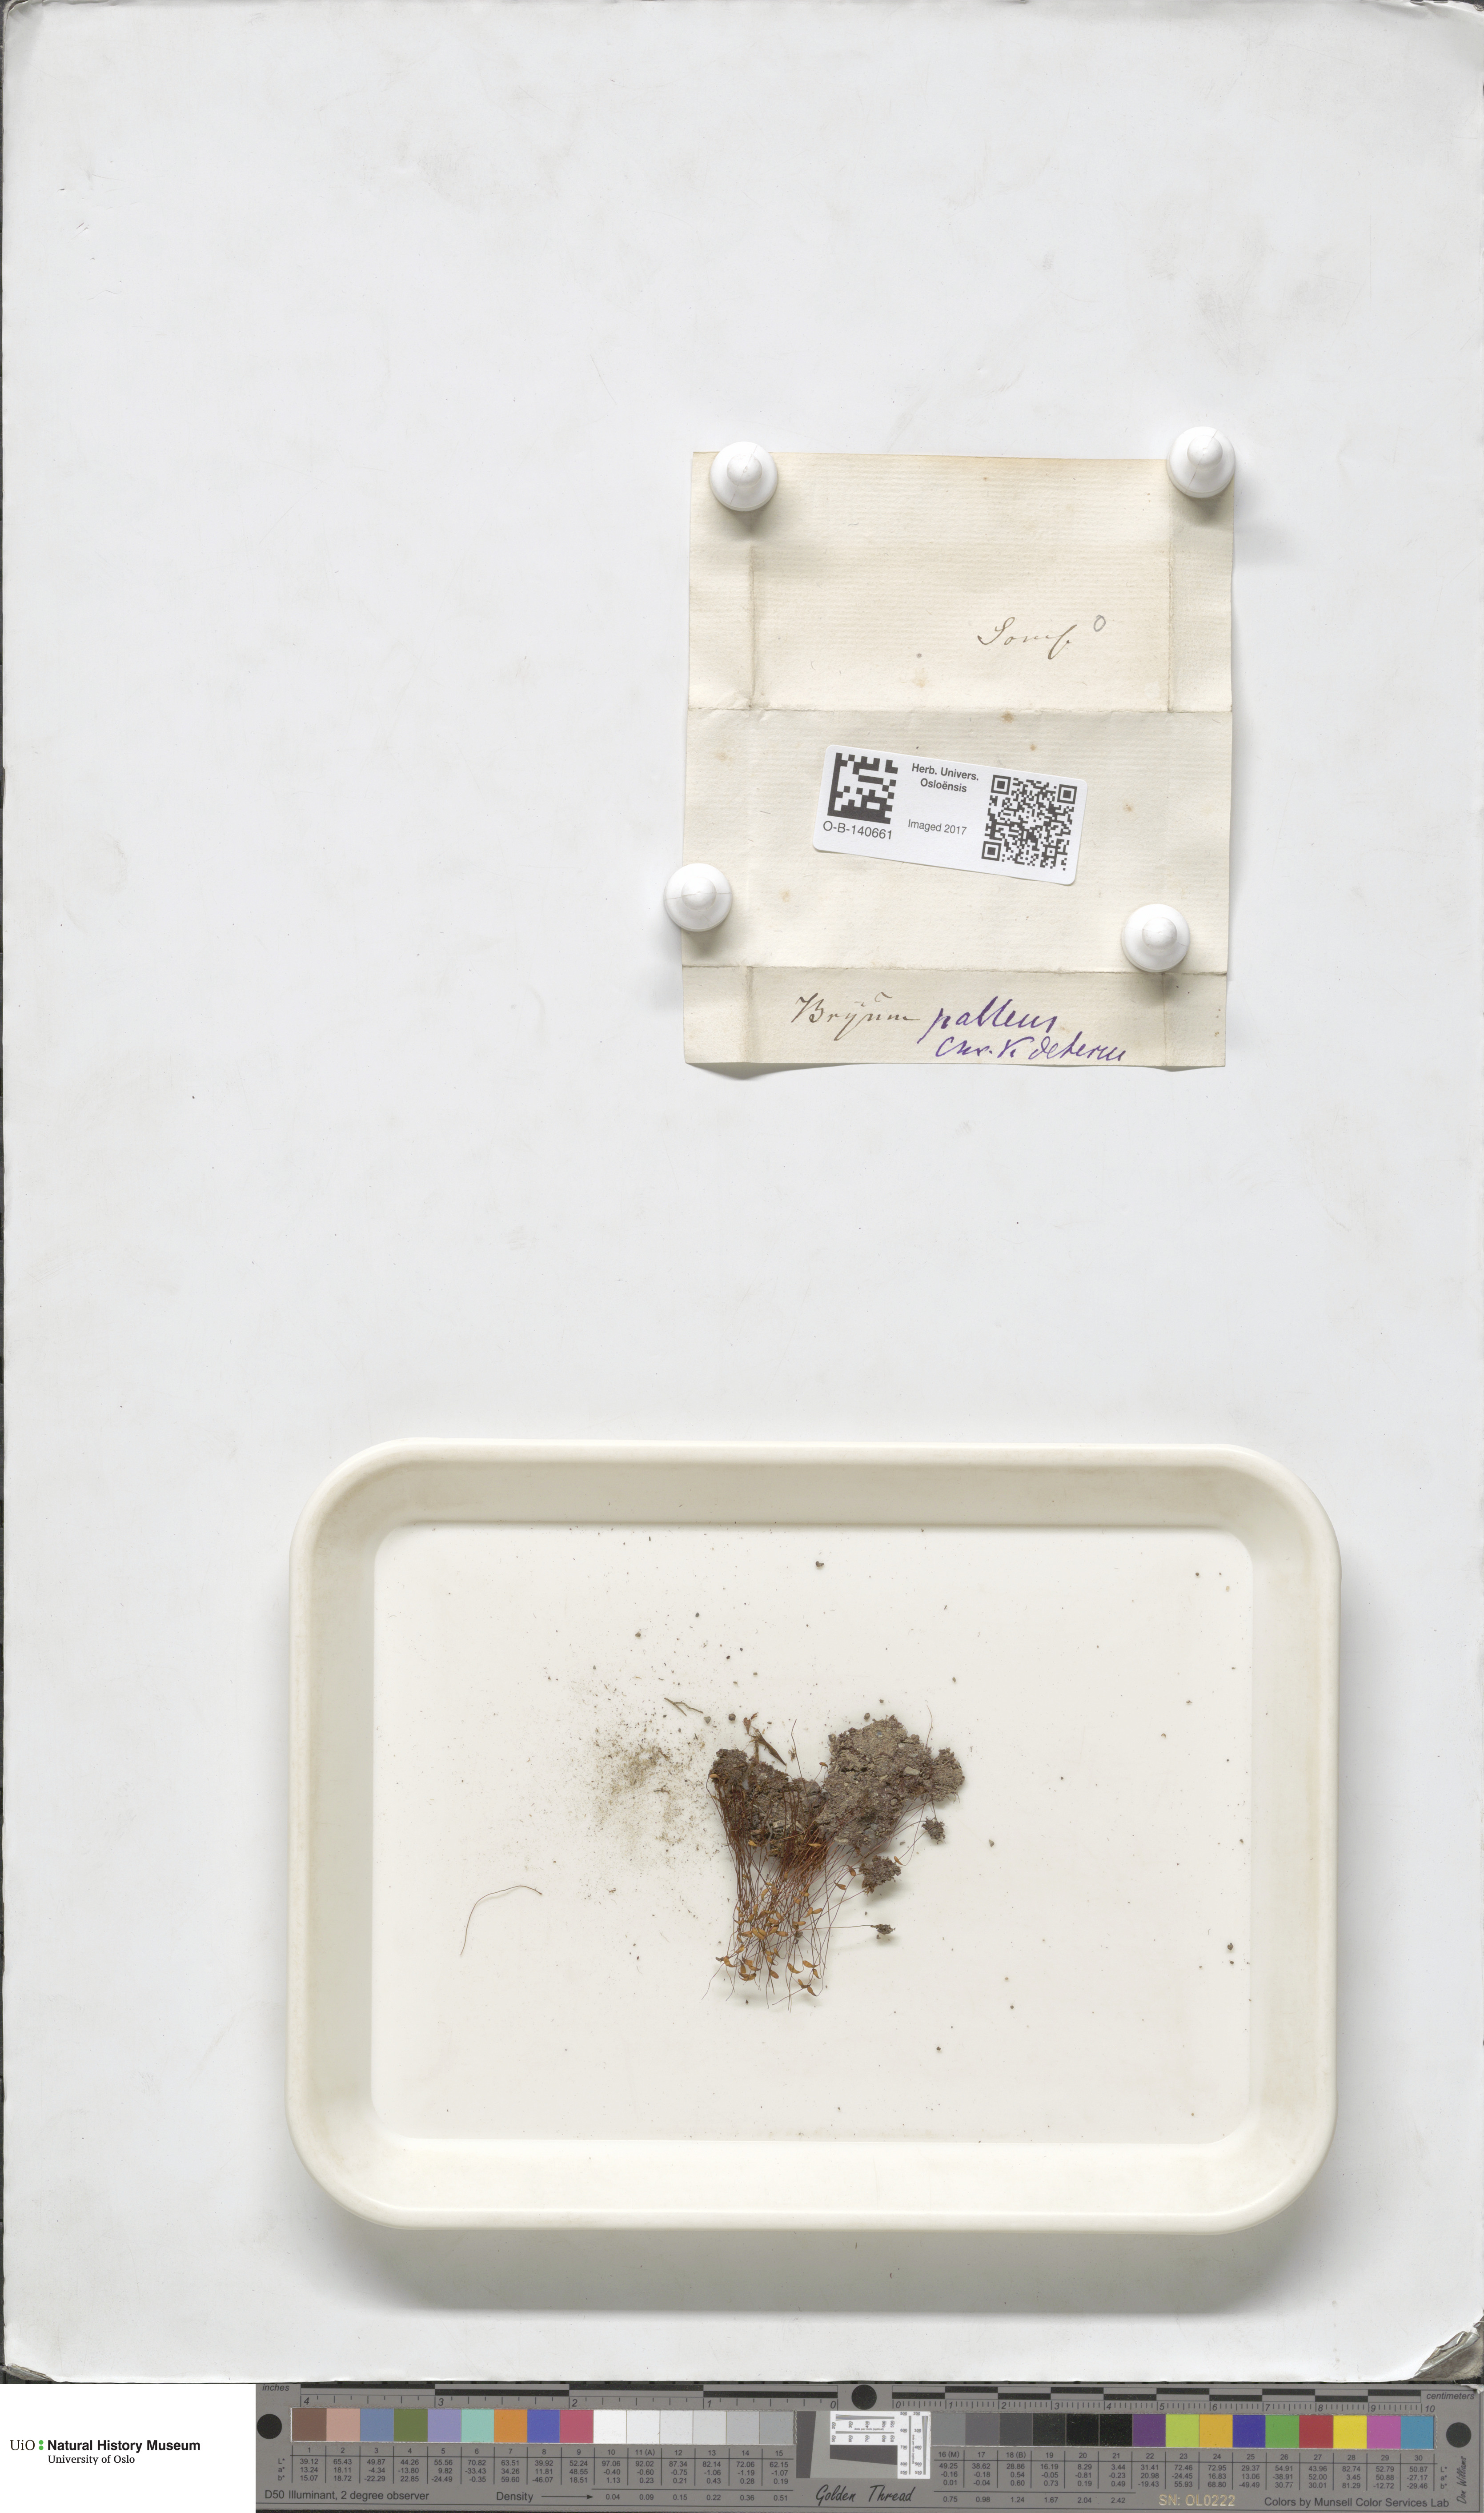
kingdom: Plantae
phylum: Bryophyta
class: Bryopsida
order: Bryales
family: Bryaceae
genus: Ptychostomum
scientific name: Ptychostomum pallens
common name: Pale thread-moss
